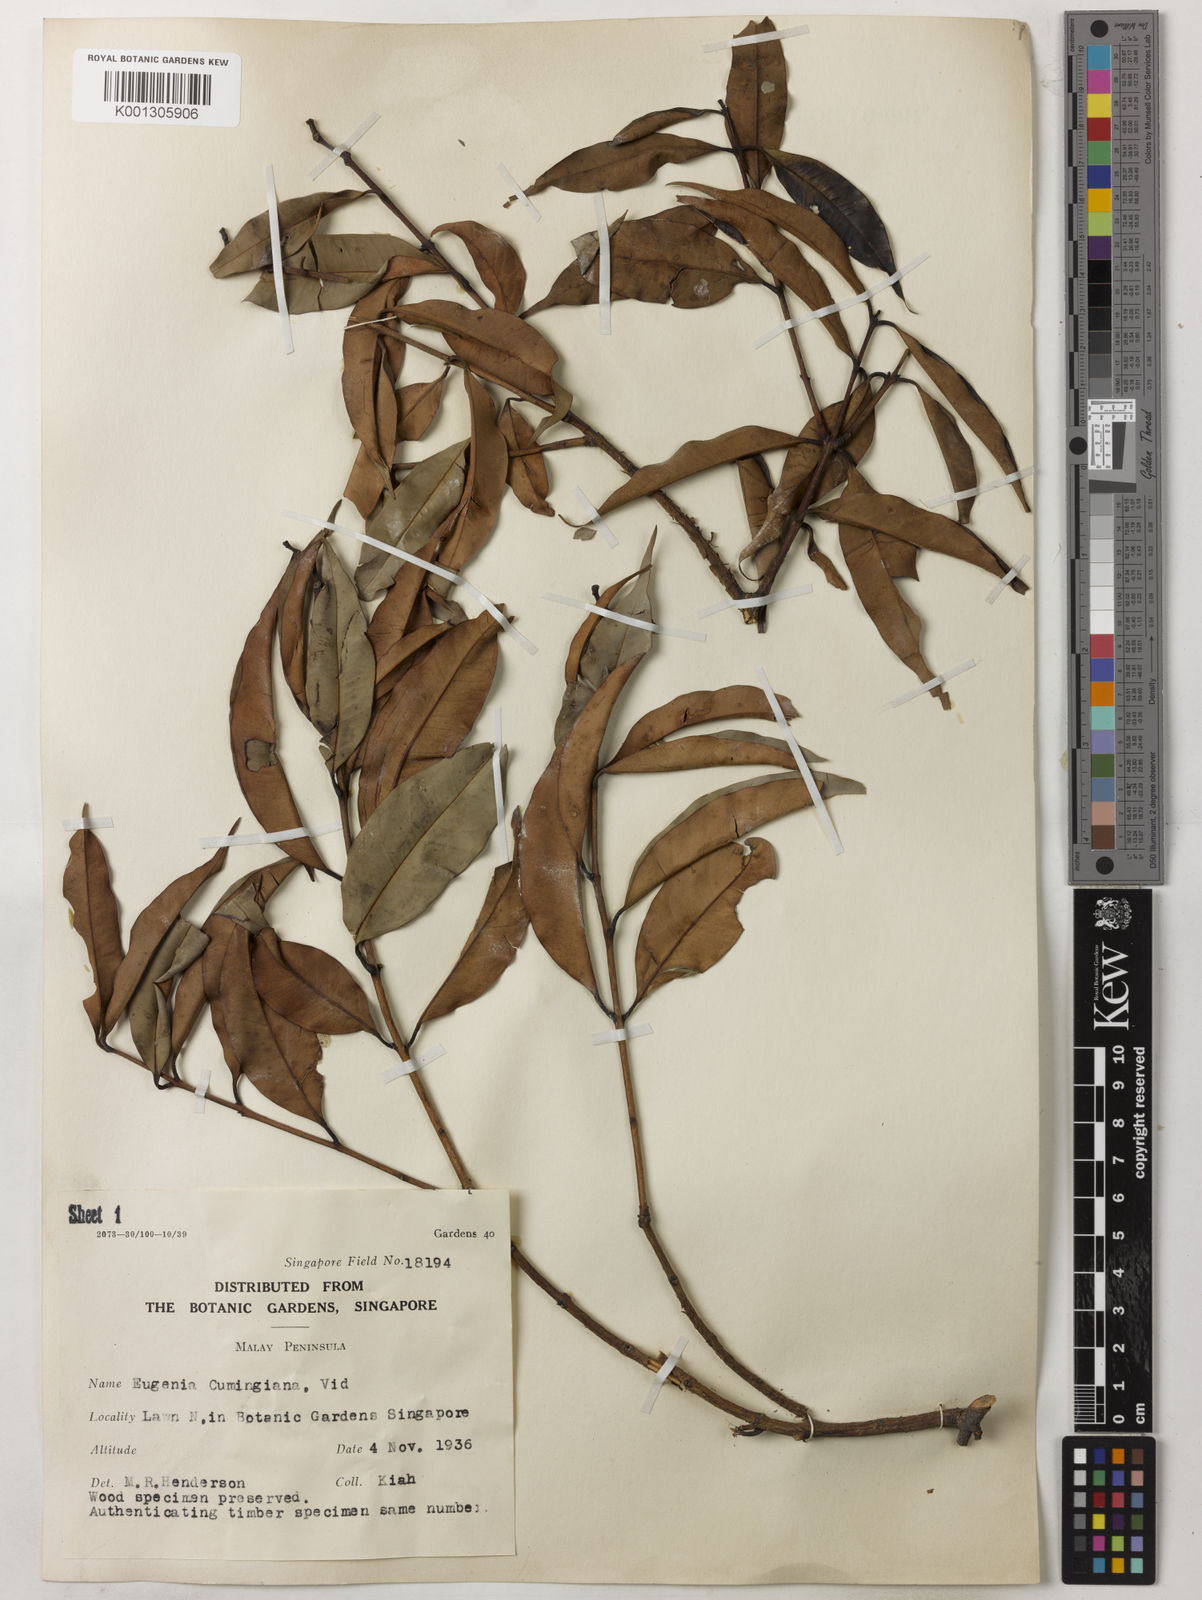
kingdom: Plantae
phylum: Tracheophyta
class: Magnoliopsida
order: Myrtales
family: Myrtaceae
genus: Syzygium
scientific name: Syzygium acuminatissimum
